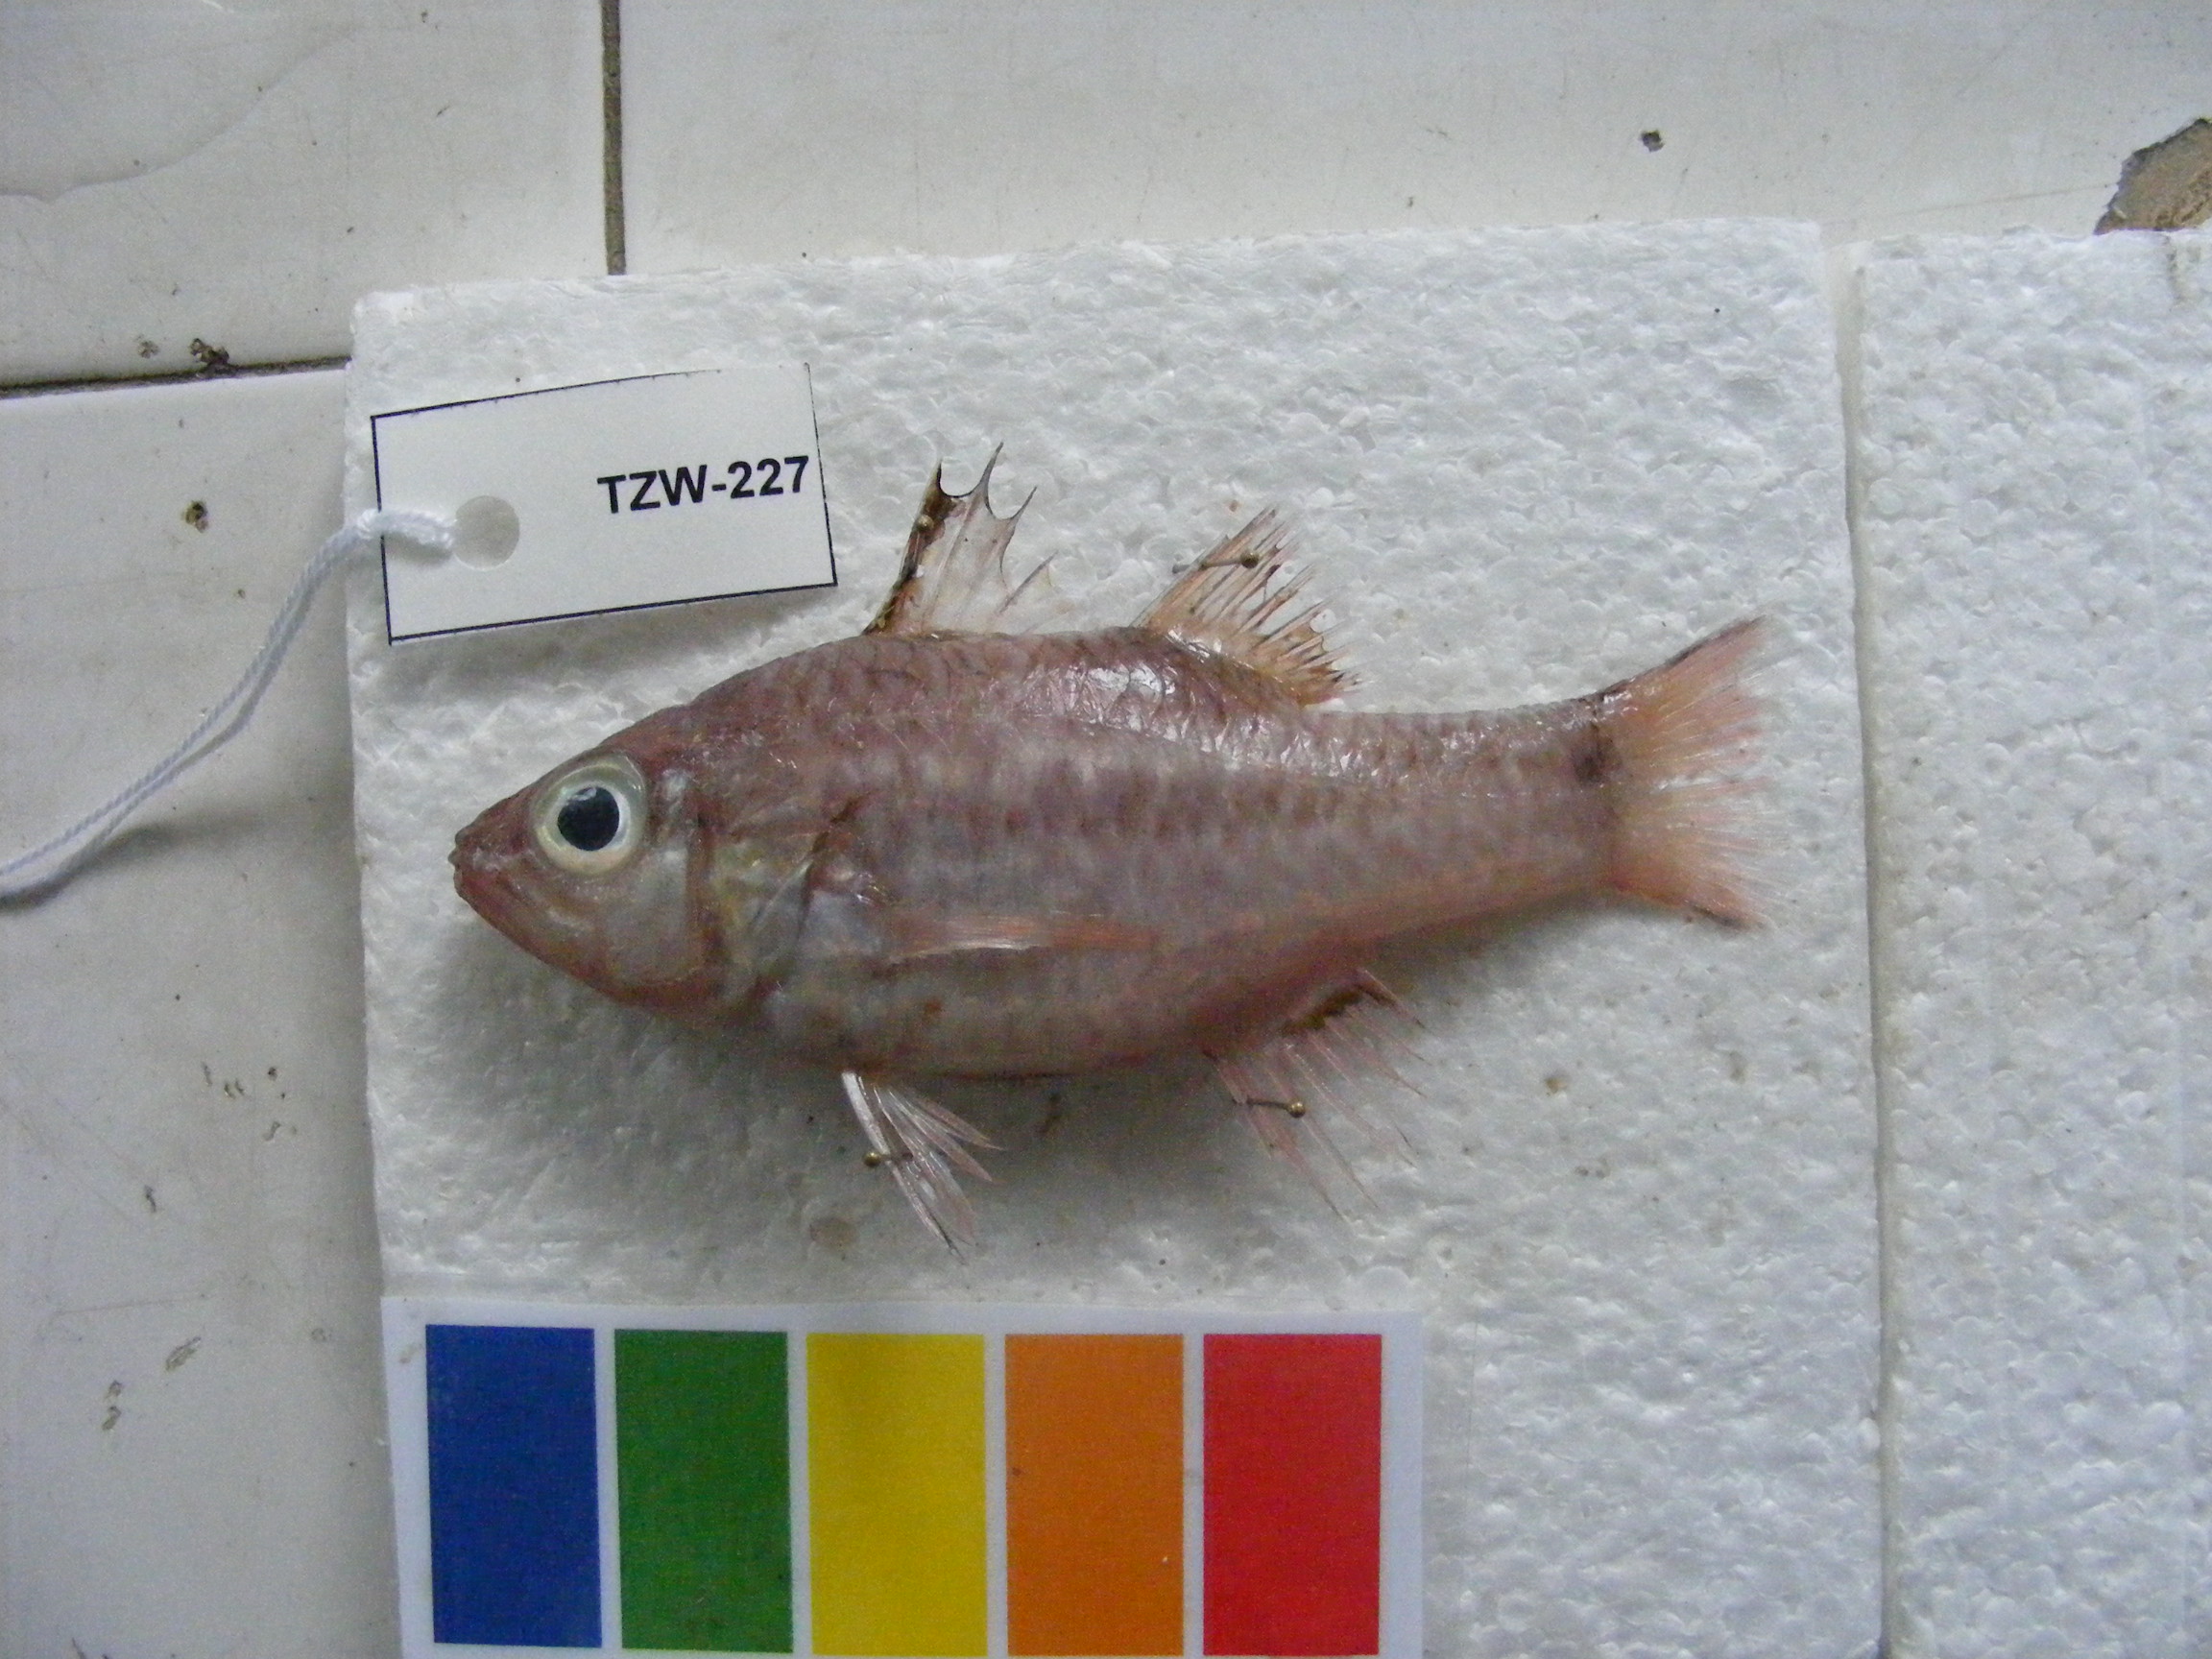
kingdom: Animalia
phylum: Chordata
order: Perciformes
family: Apogonidae
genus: Pristiapogon
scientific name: Pristiapogon kallopterus
